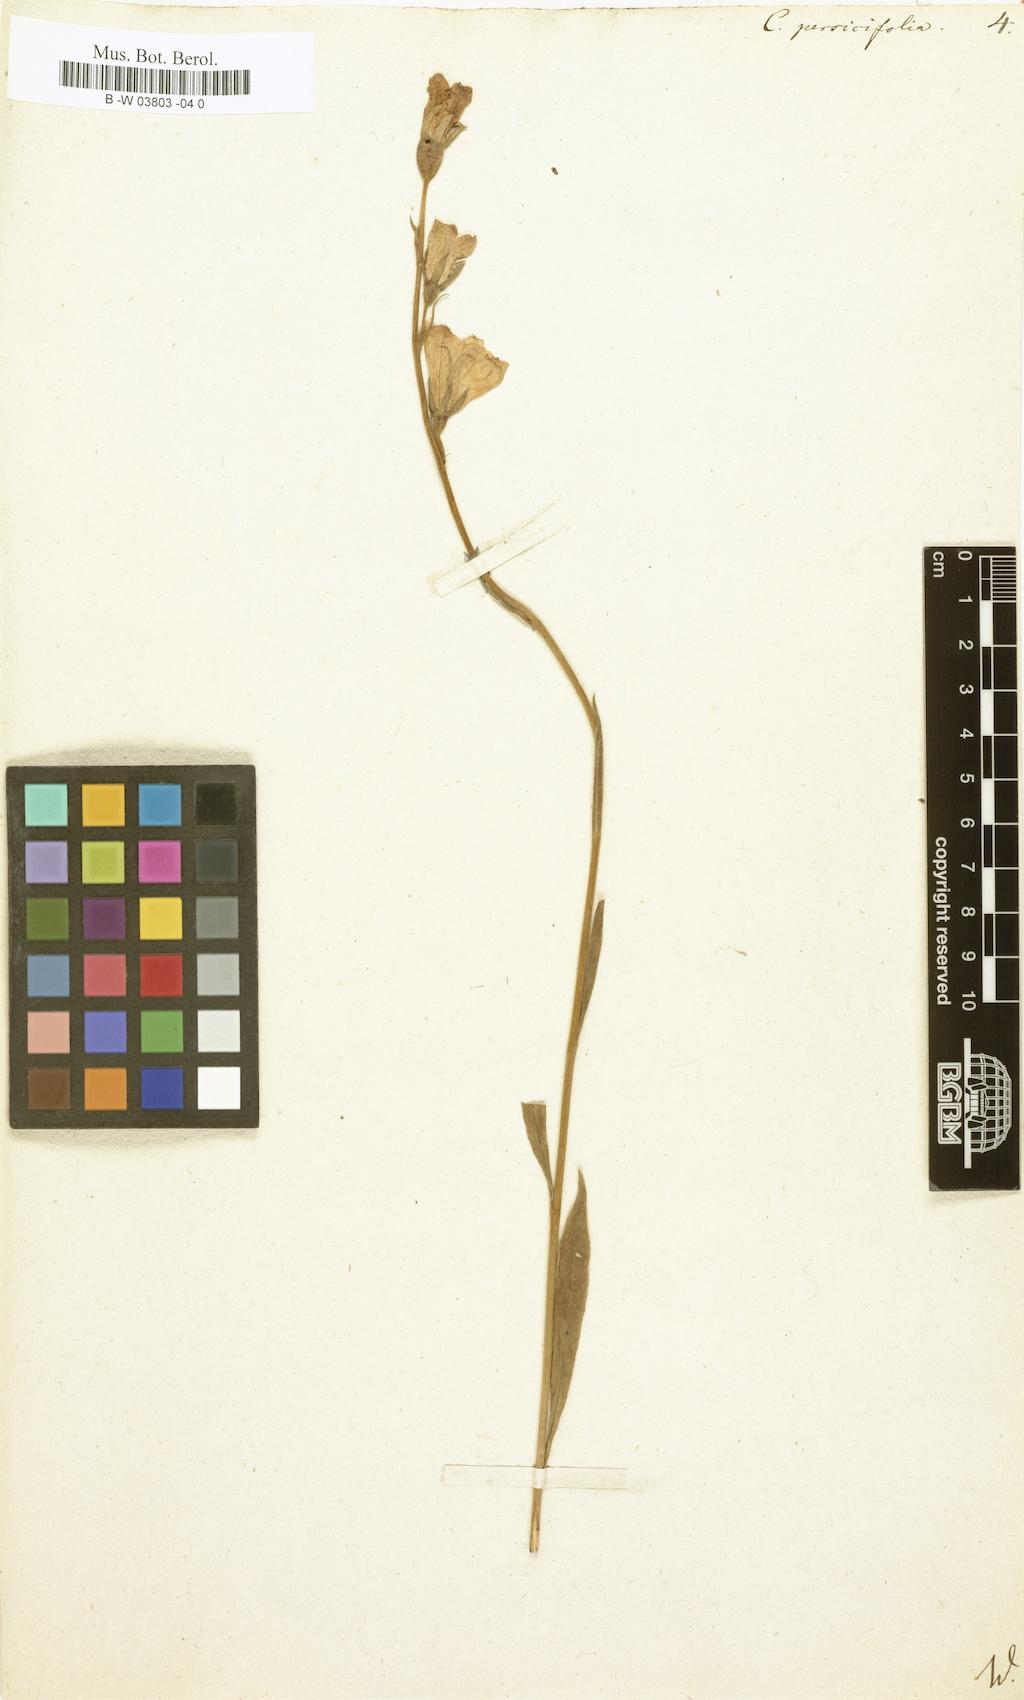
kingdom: Plantae
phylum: Tracheophyta
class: Magnoliopsida
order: Asterales
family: Campanulaceae
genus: Campanula
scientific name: Campanula persicifolia
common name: Peach-leaved bellflower
